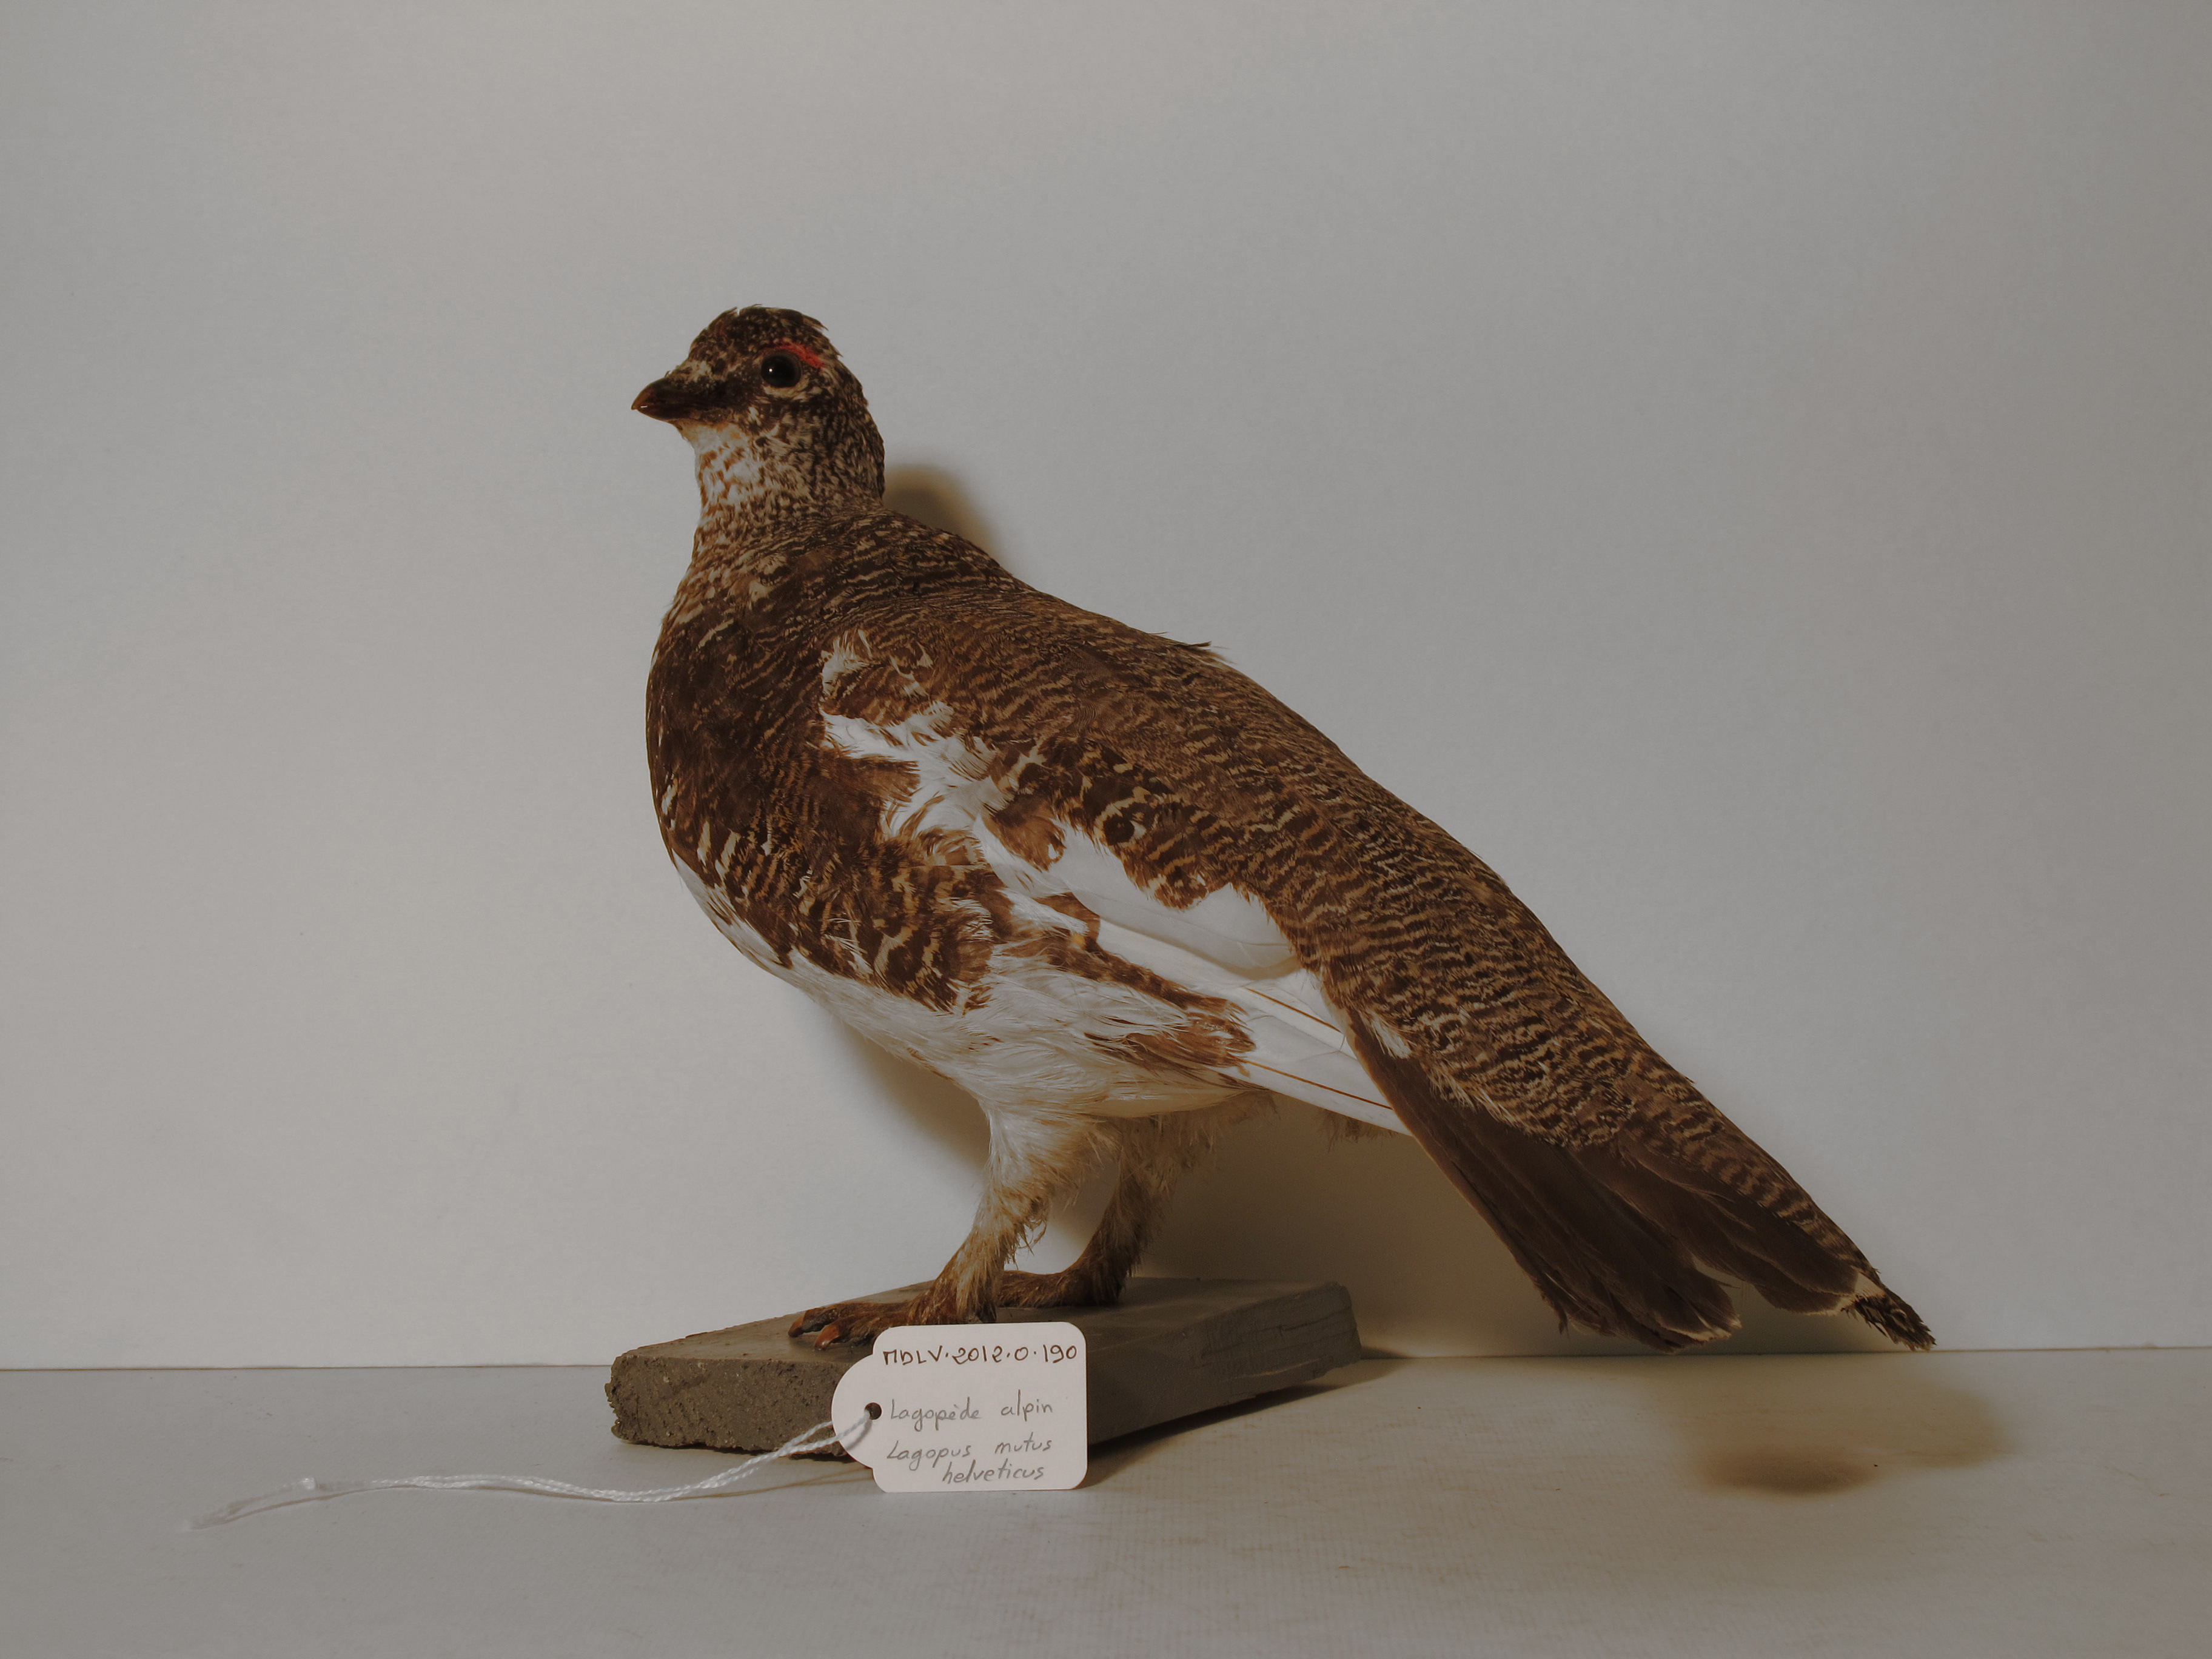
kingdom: Animalia
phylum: Chordata
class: Aves
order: Galliformes
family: Phasianidae
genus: Lagopus
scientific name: Lagopus muta
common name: Rock Ptarmigan
